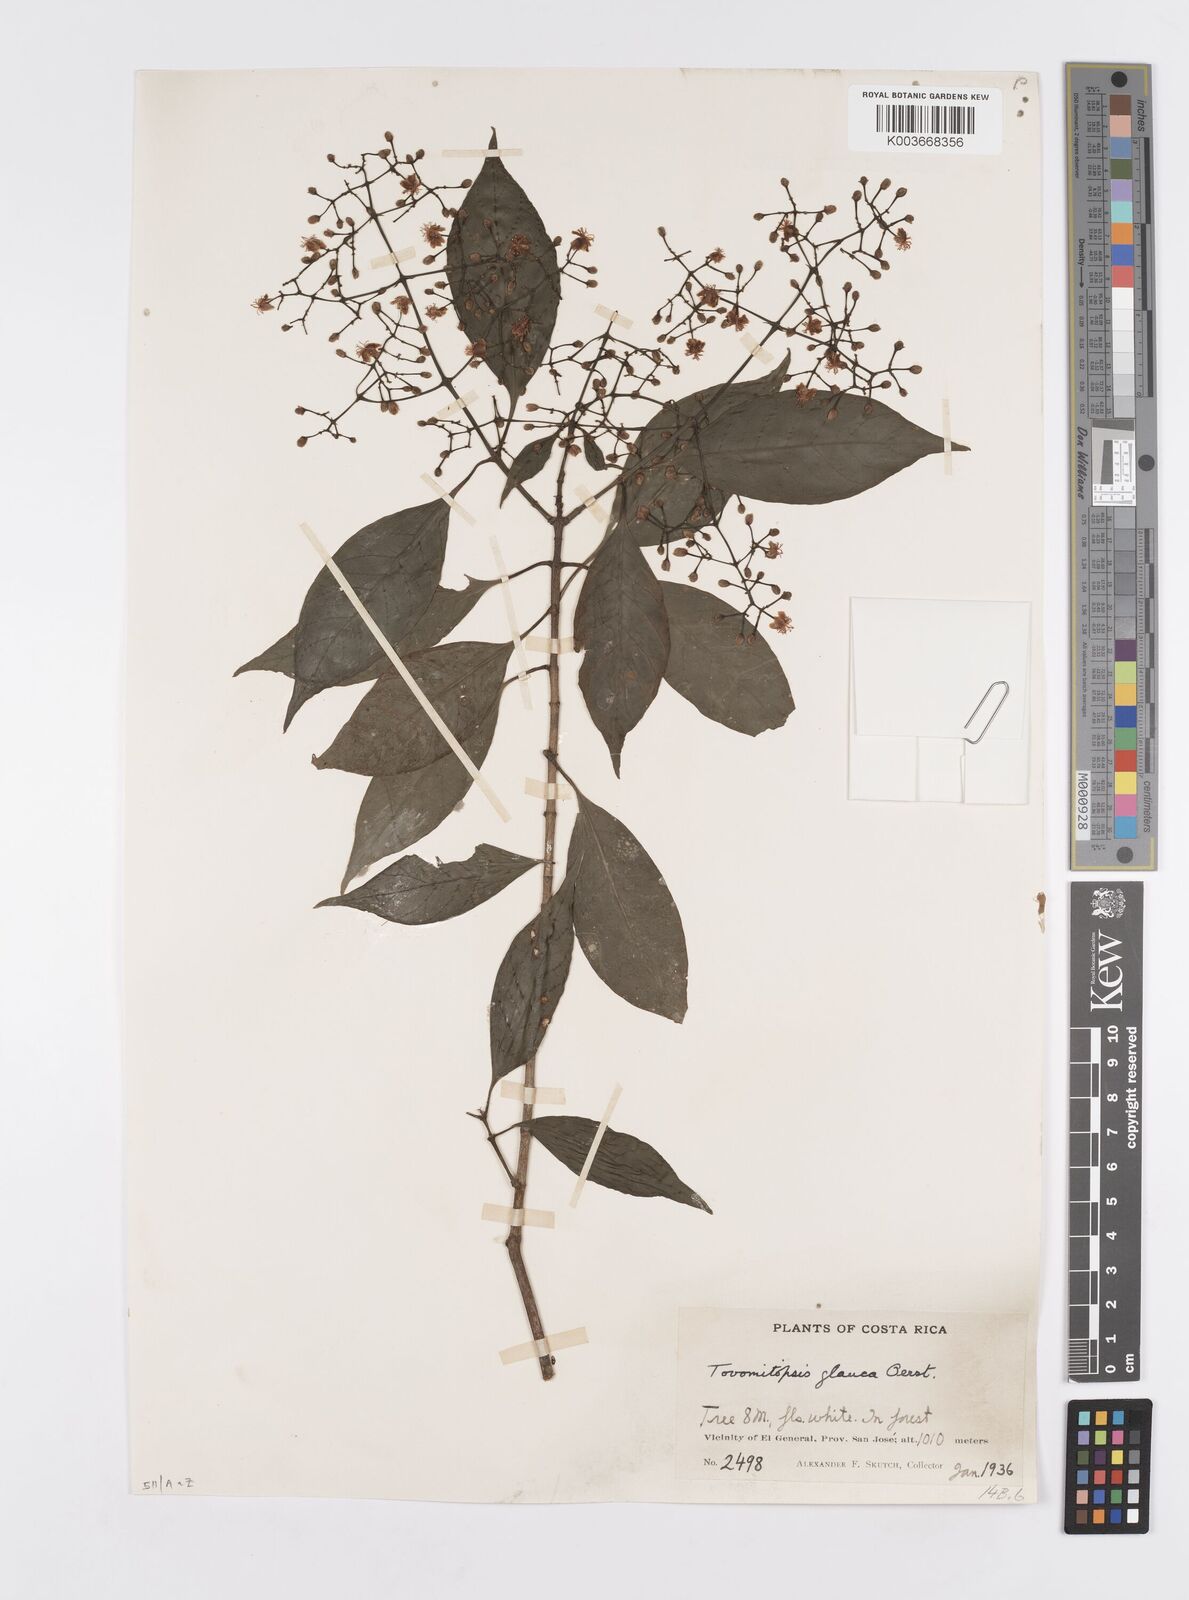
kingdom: Plantae
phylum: Tracheophyta
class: Magnoliopsida
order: Malpighiales
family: Clusiaceae
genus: Chrysochlamys
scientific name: Chrysochlamys glauca
